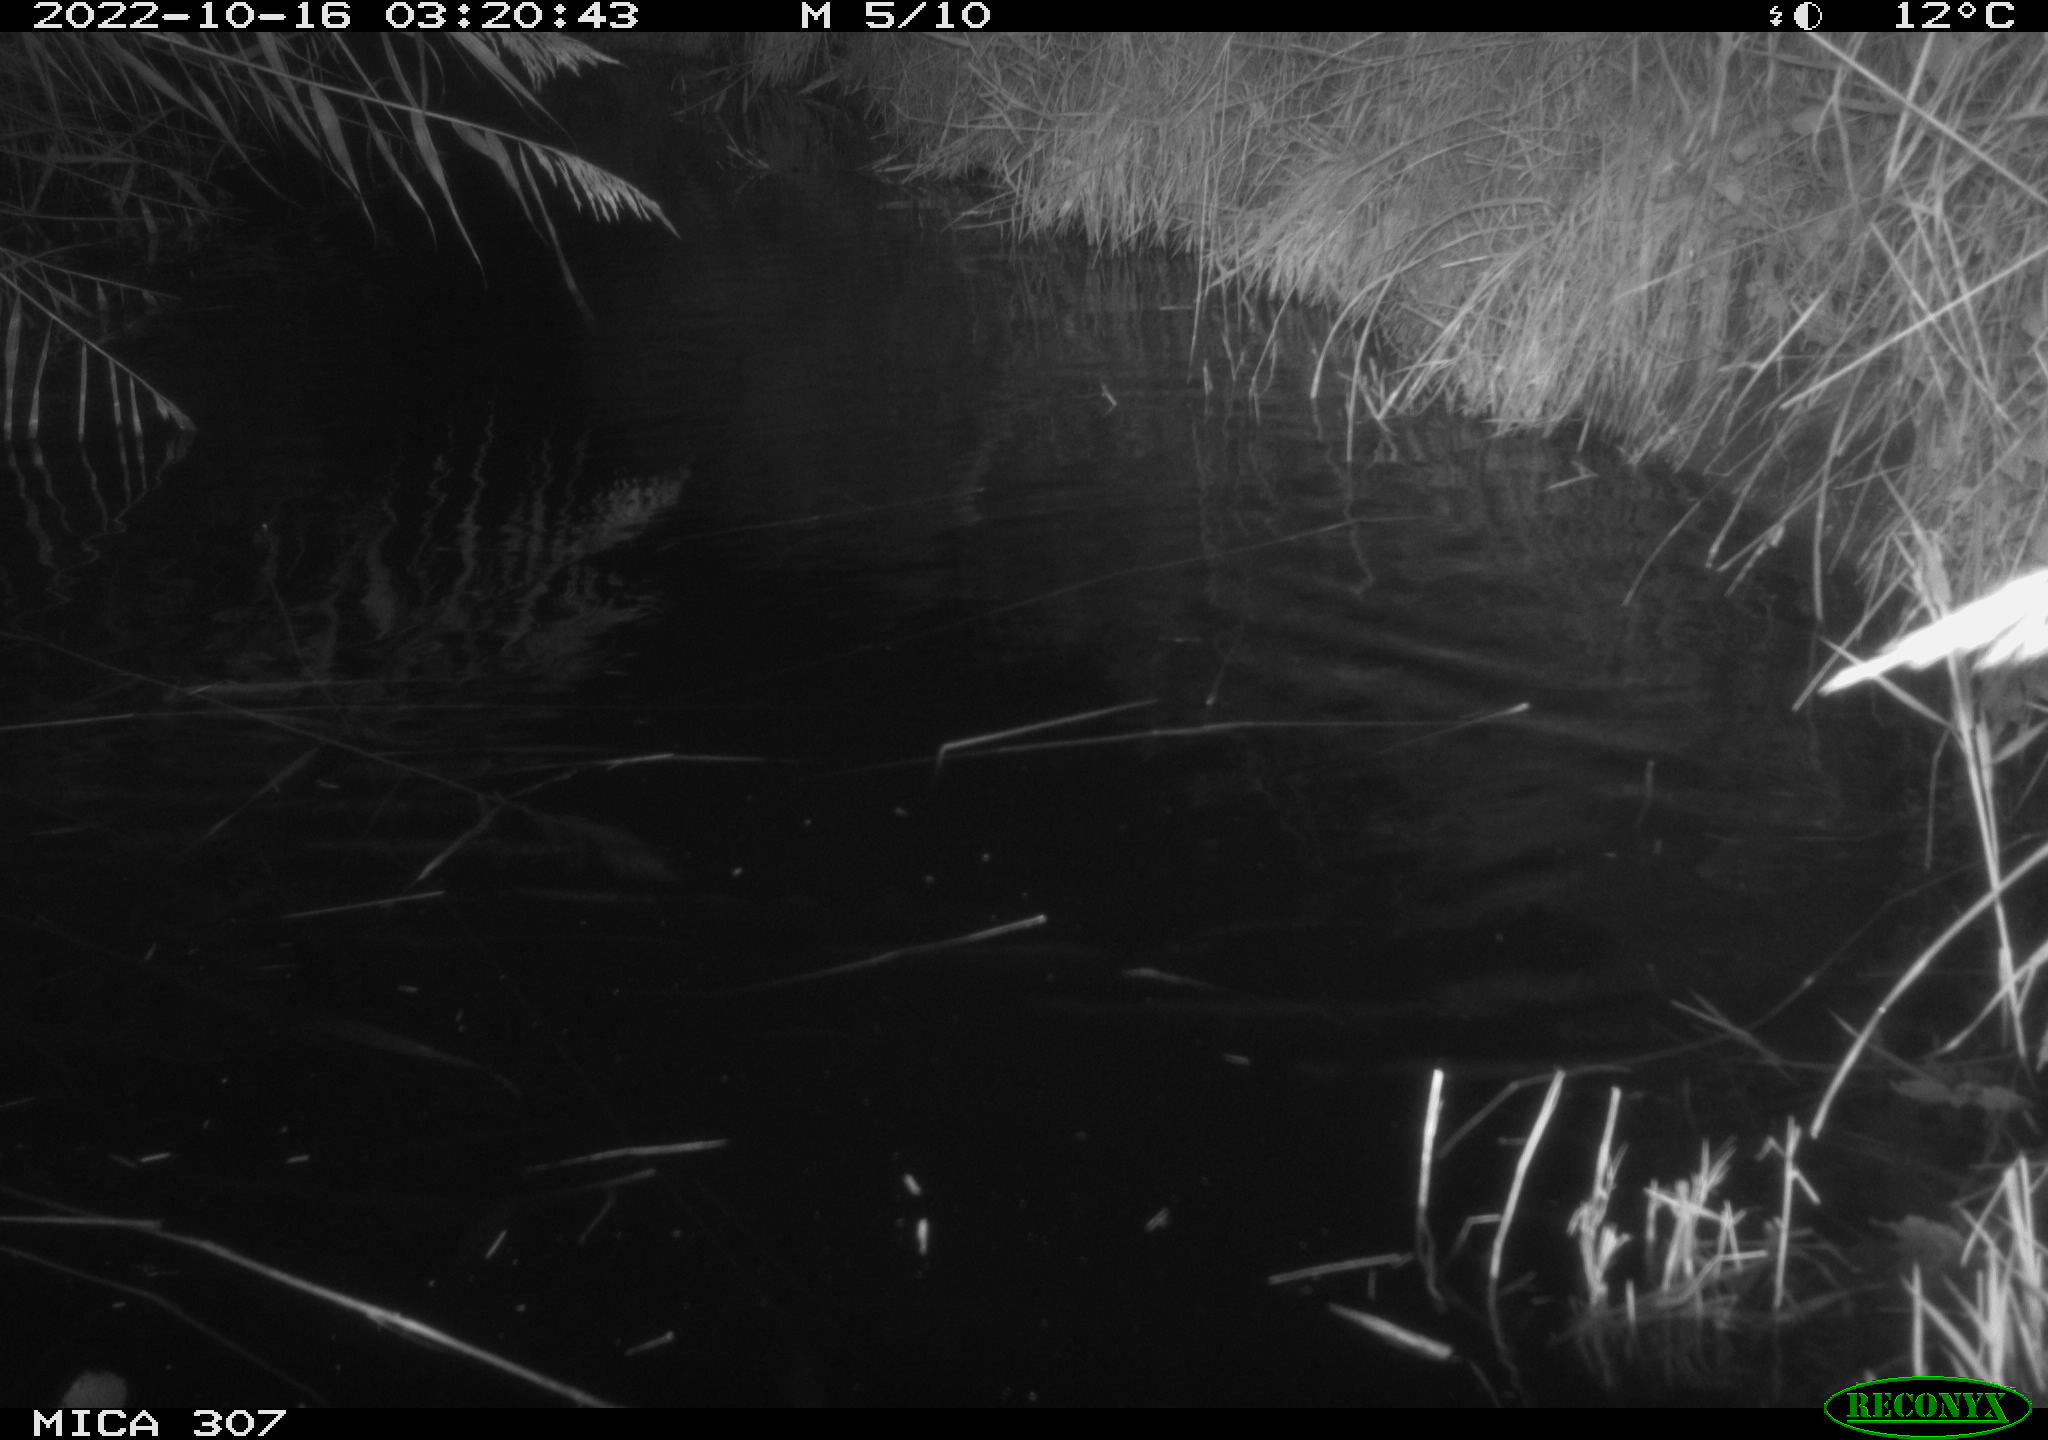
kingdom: Animalia
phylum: Chordata
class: Mammalia
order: Rodentia
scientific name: Rodentia
